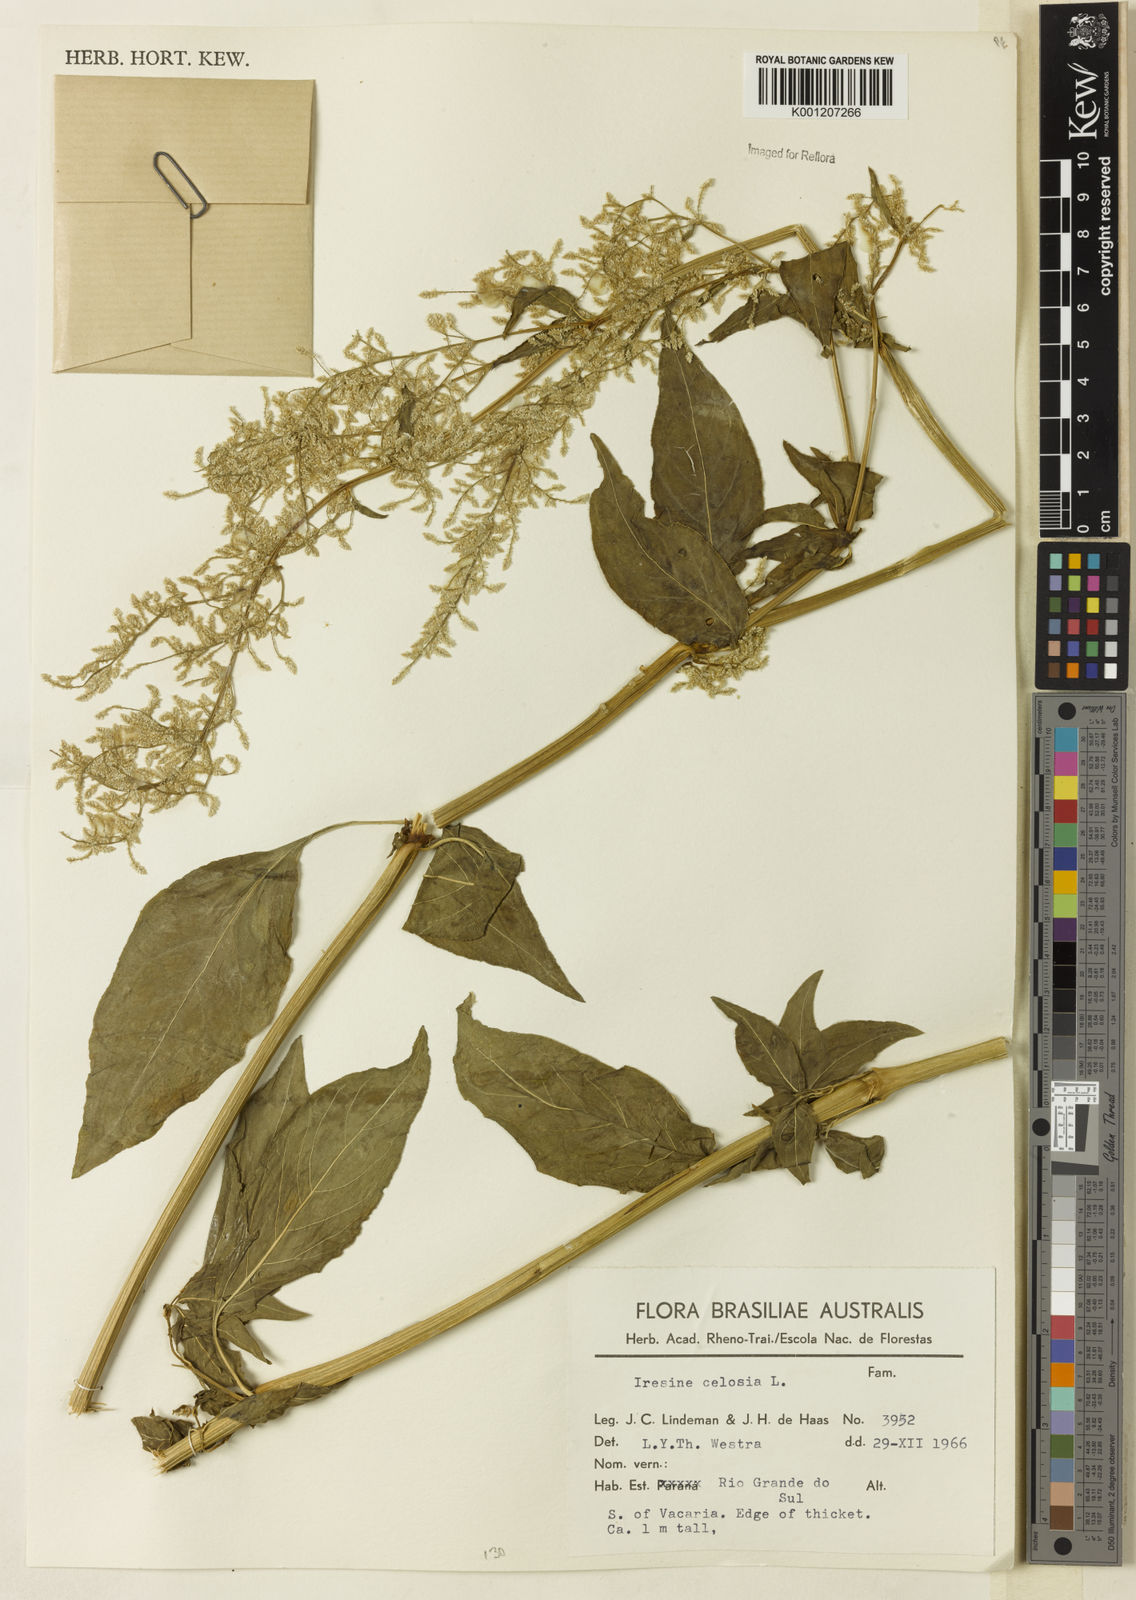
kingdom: Plantae
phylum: Tracheophyta
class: Magnoliopsida
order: Caryophyllales
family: Amaranthaceae
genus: Iresine
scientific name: Iresine rhizomatosa
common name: Juda's-bush
